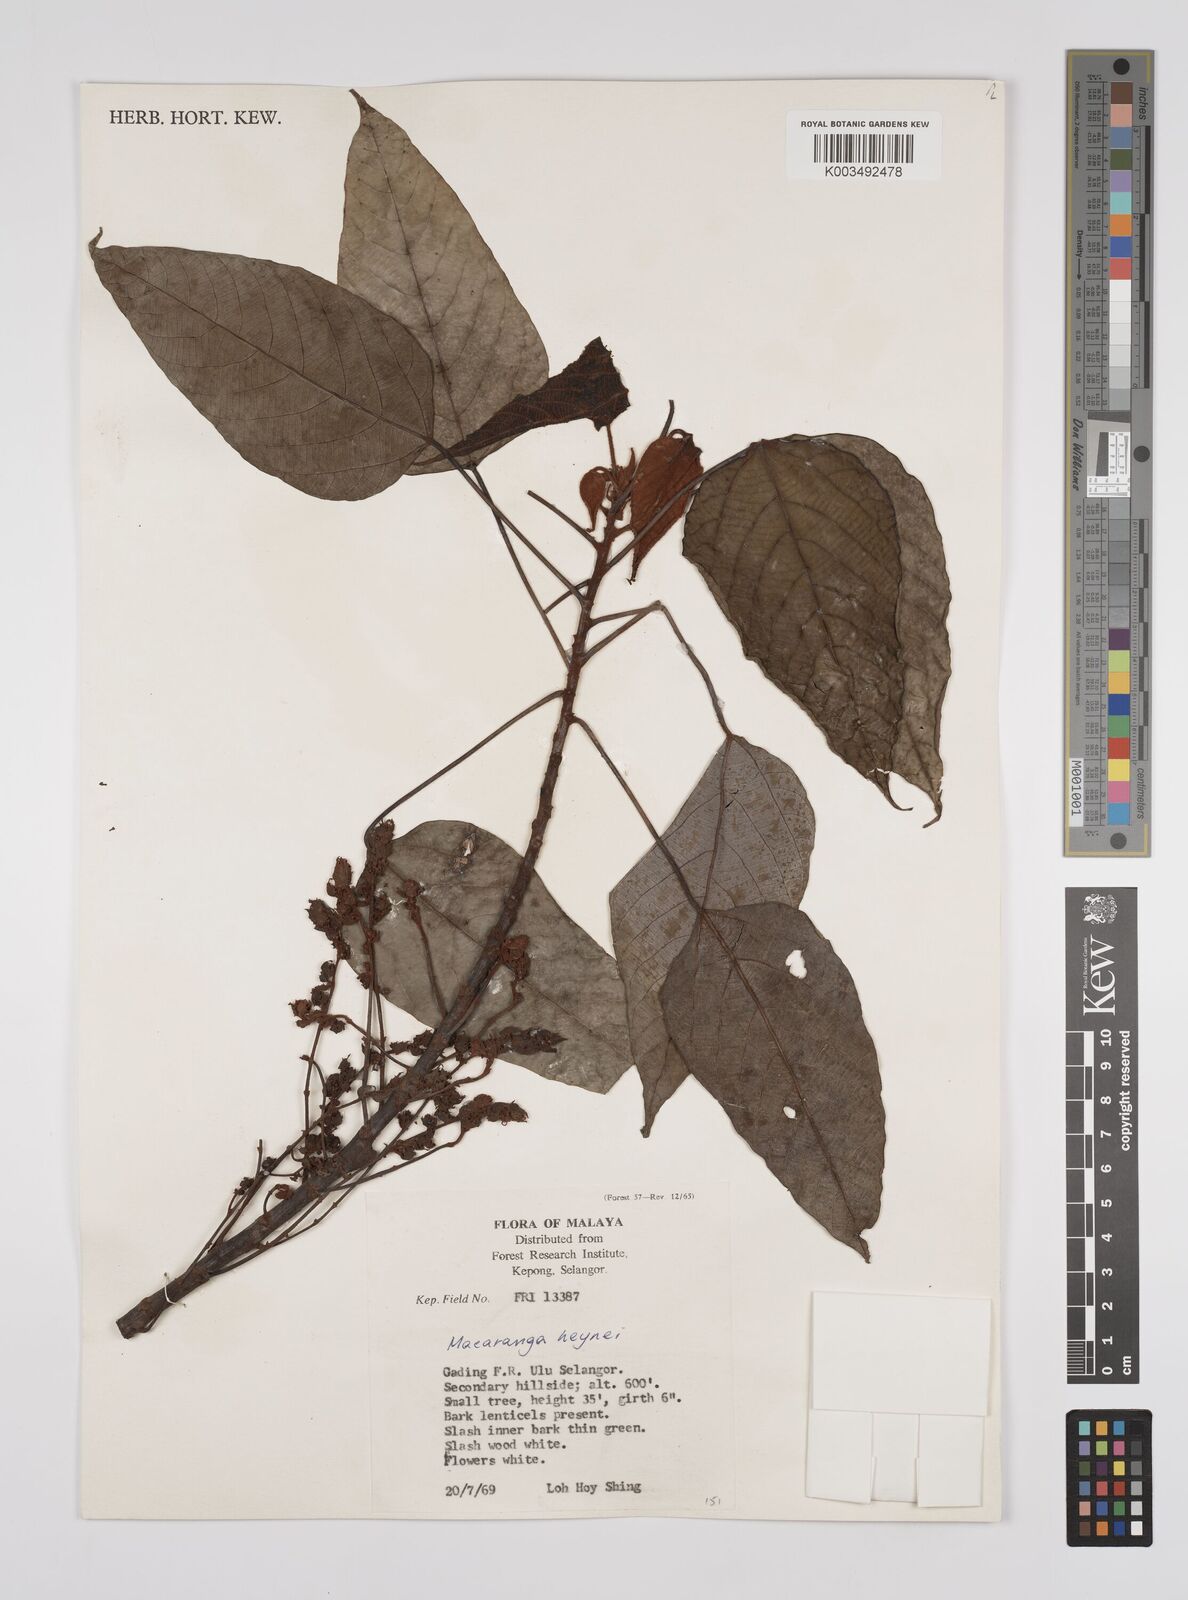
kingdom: Plantae
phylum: Tracheophyta
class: Magnoliopsida
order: Malpighiales
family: Euphorbiaceae
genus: Macaranga
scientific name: Macaranga heynei
